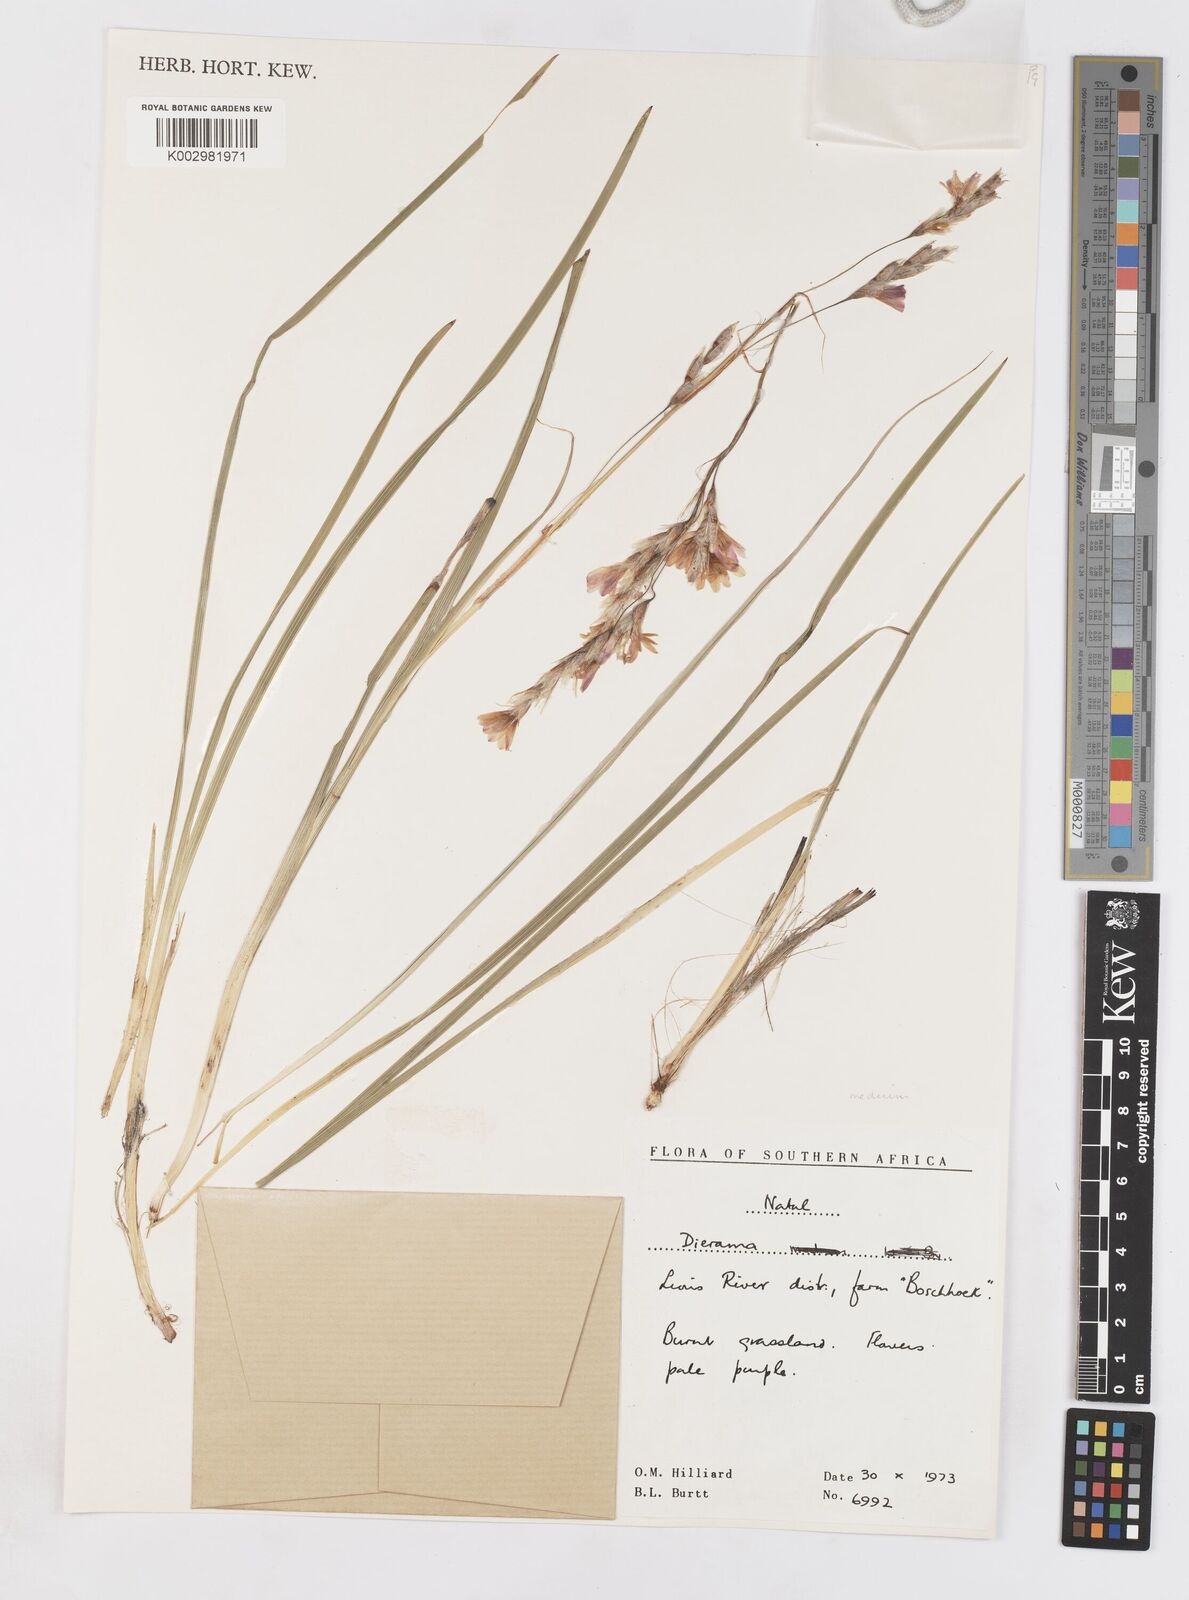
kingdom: Plantae
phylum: Tracheophyta
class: Liliopsida
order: Asparagales
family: Iridaceae
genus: Dierama
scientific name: Dierama medium
